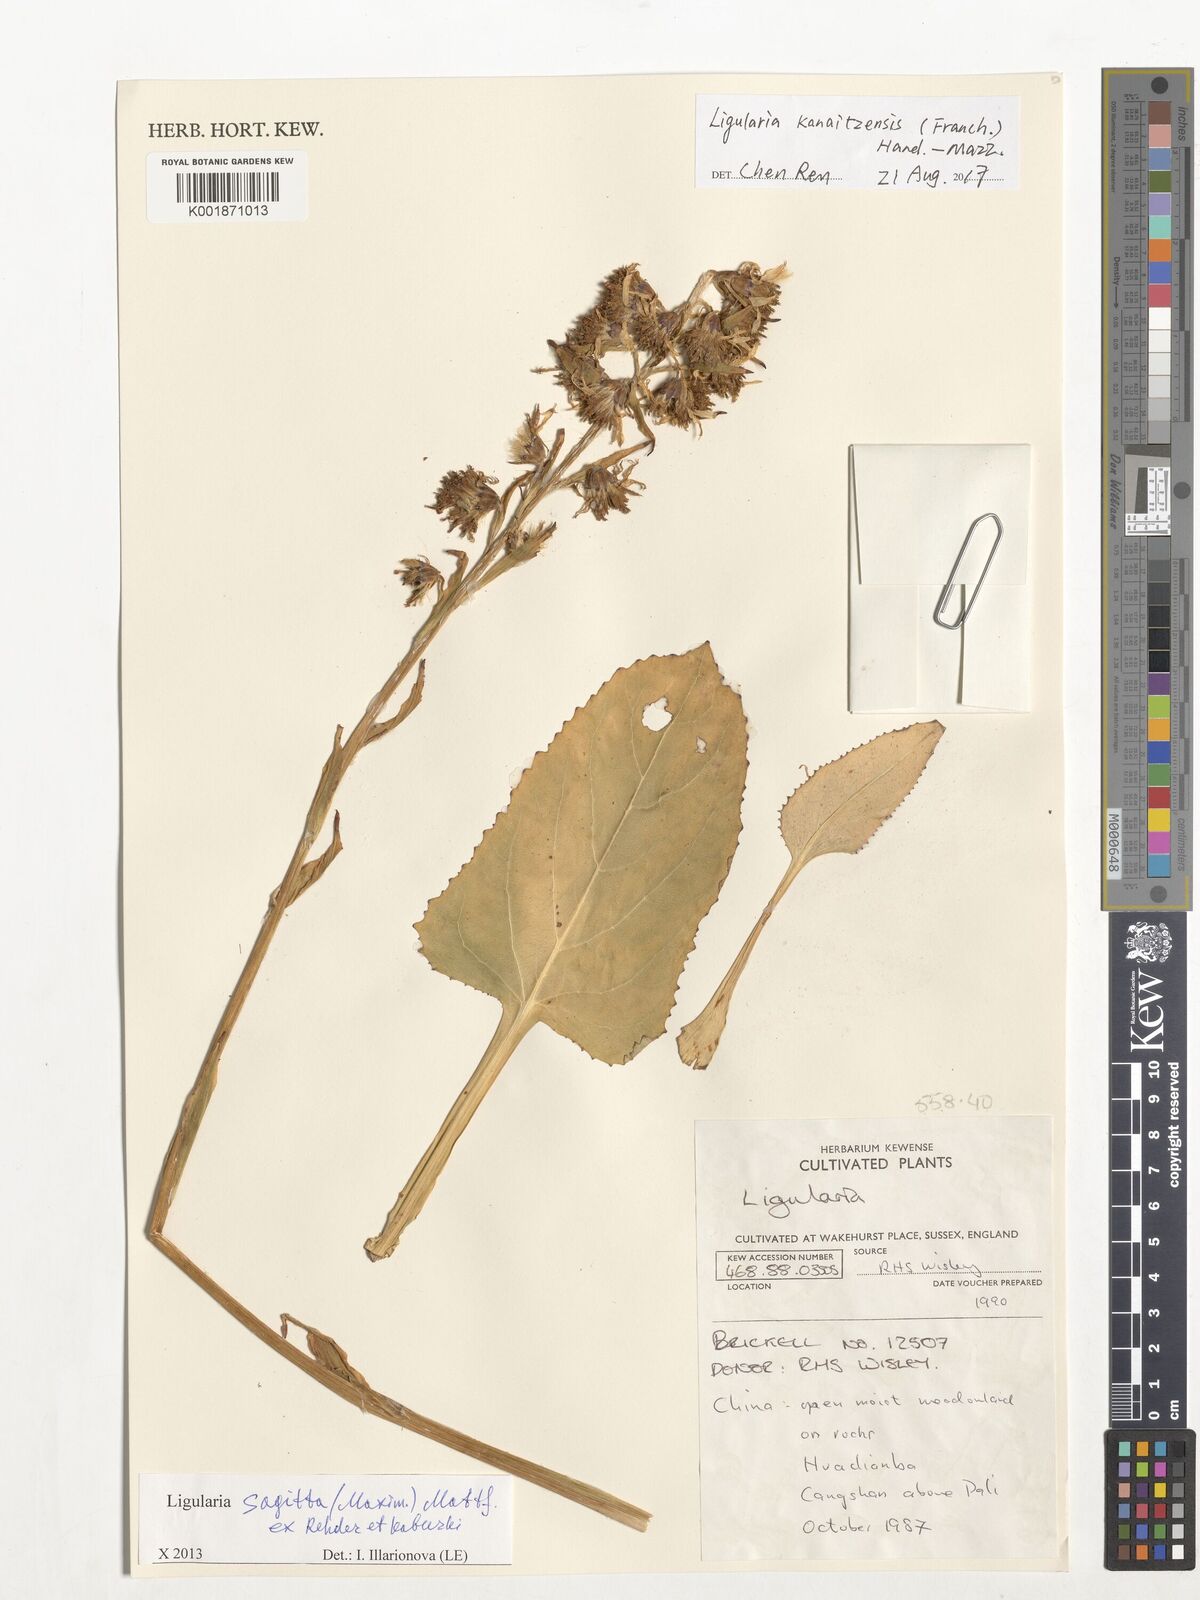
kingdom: Plantae
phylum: Tracheophyta
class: Magnoliopsida
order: Asterales
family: Asteraceae
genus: Ligularia
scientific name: Ligularia kanaitzensis
